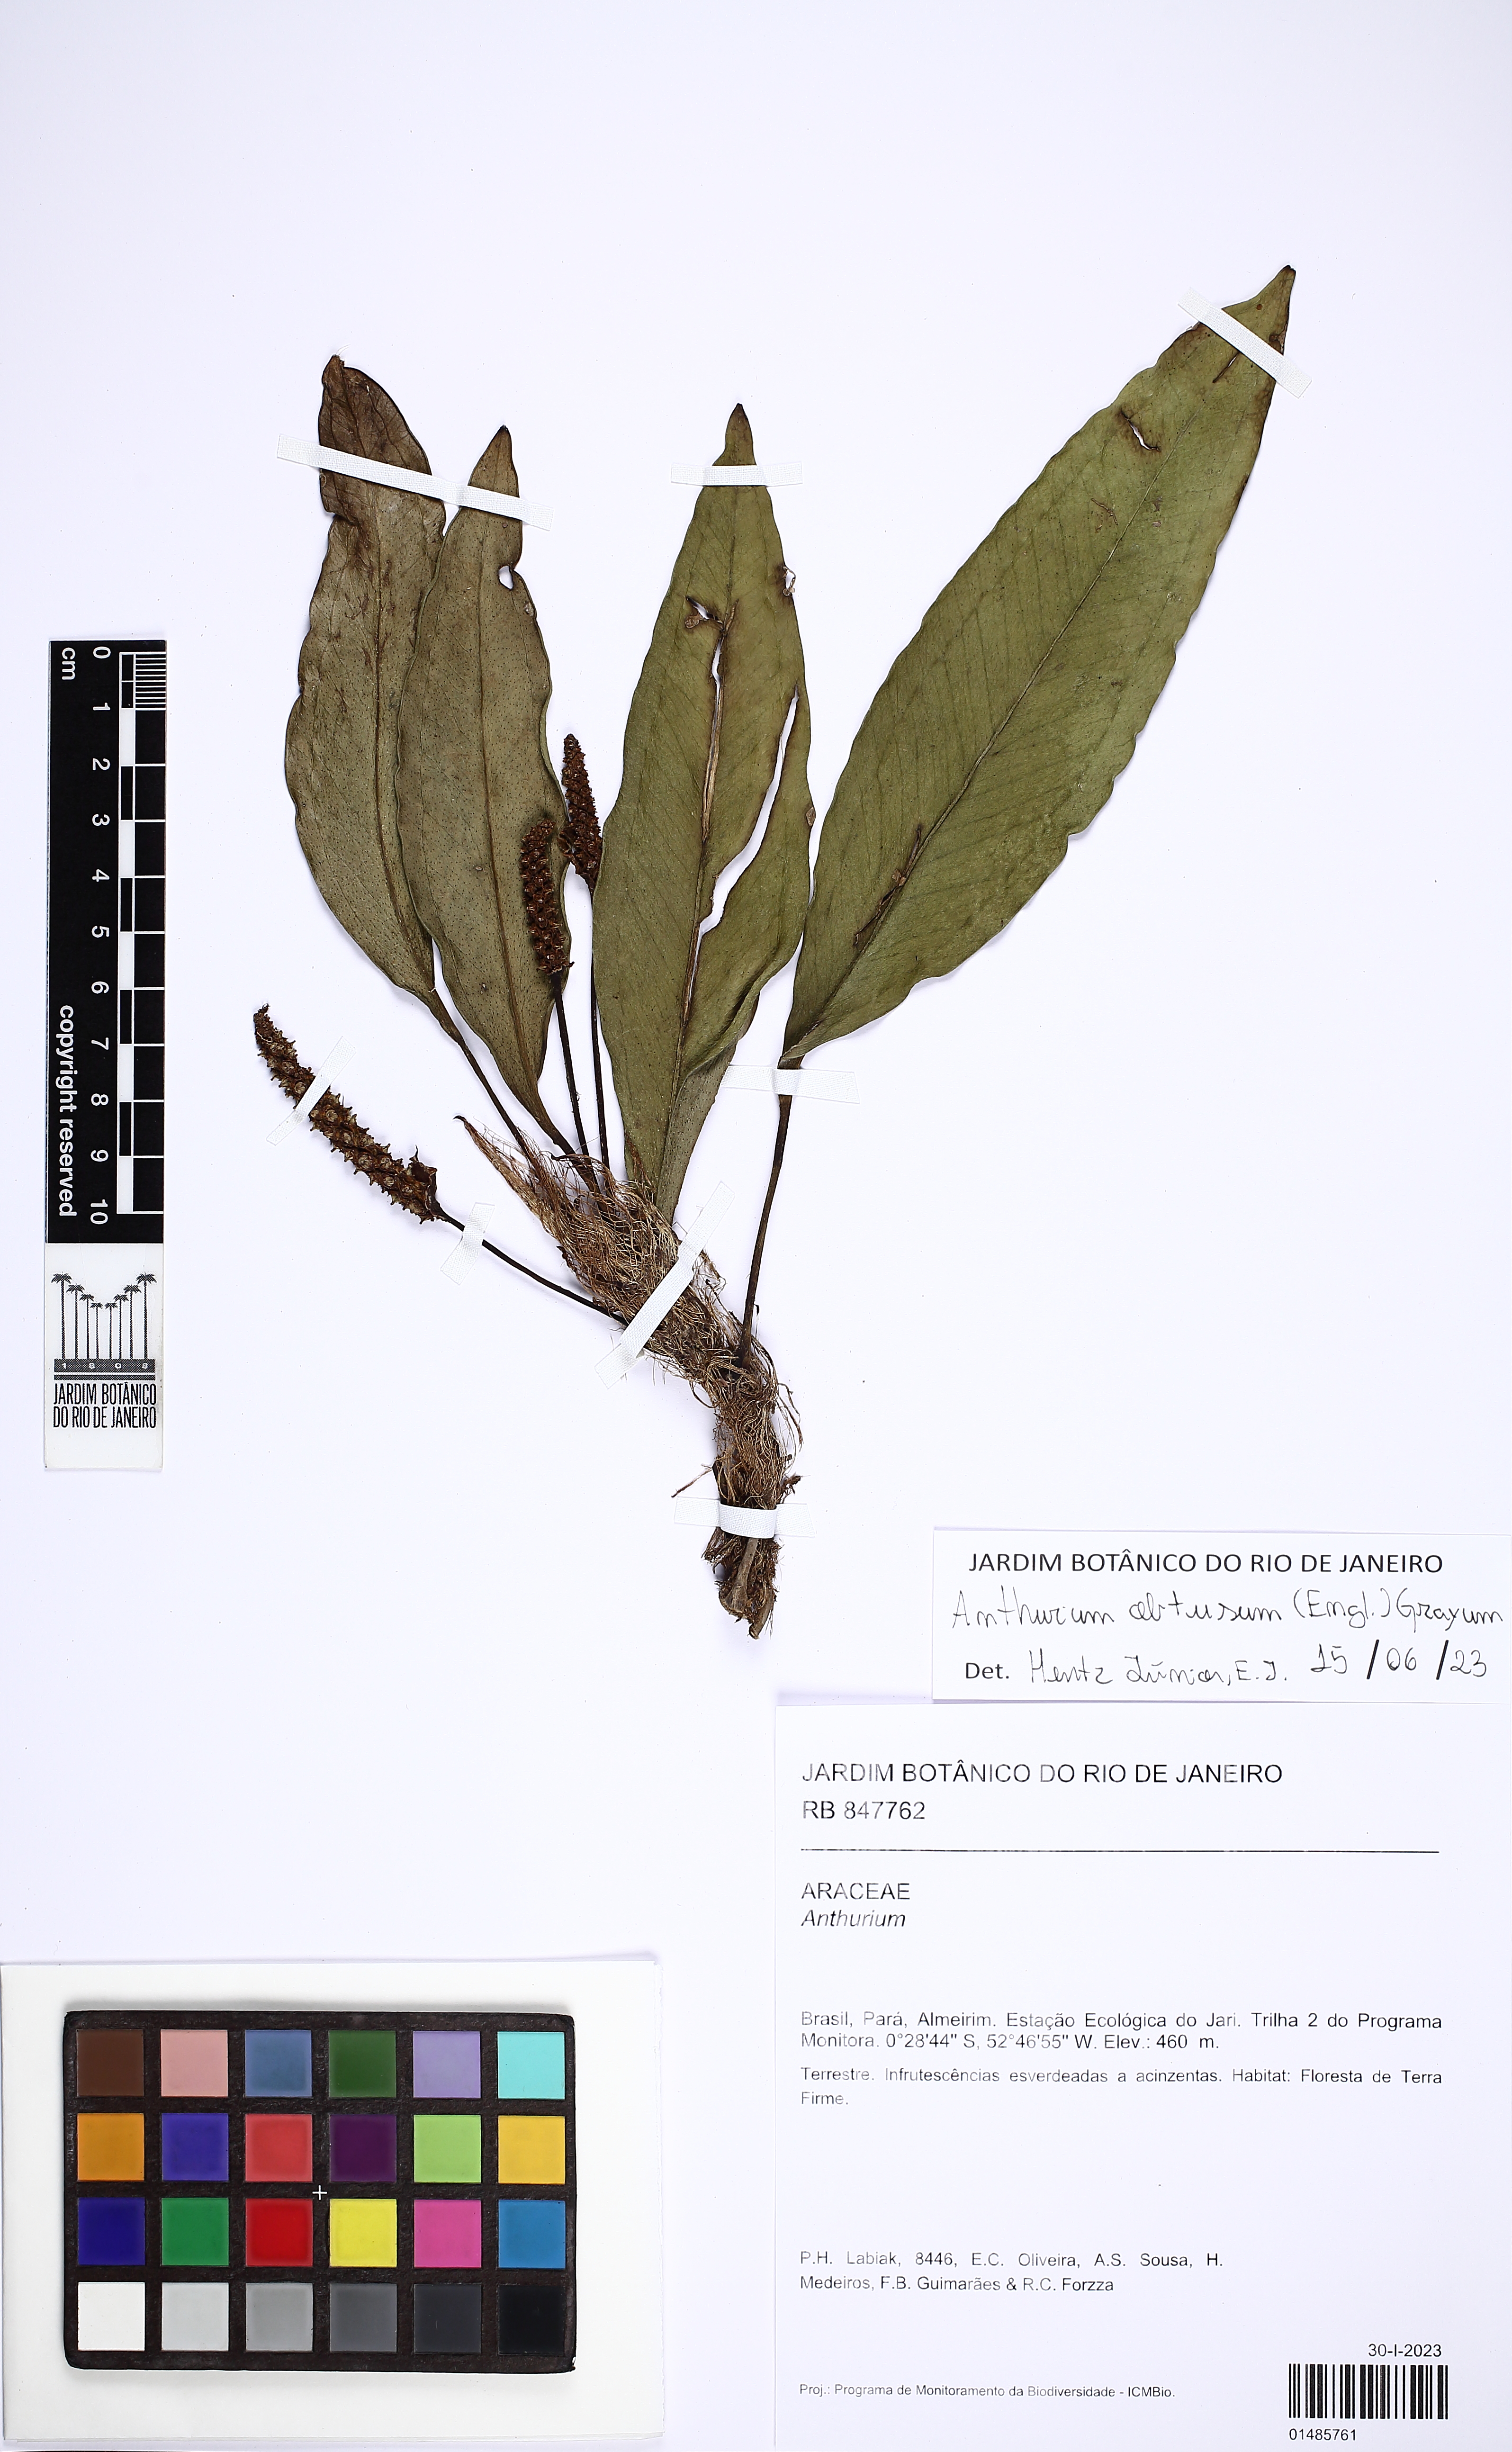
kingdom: Plantae
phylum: Tracheophyta
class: Liliopsida
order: Alismatales
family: Araceae
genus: Anthurium
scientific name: Anthurium obtusum
